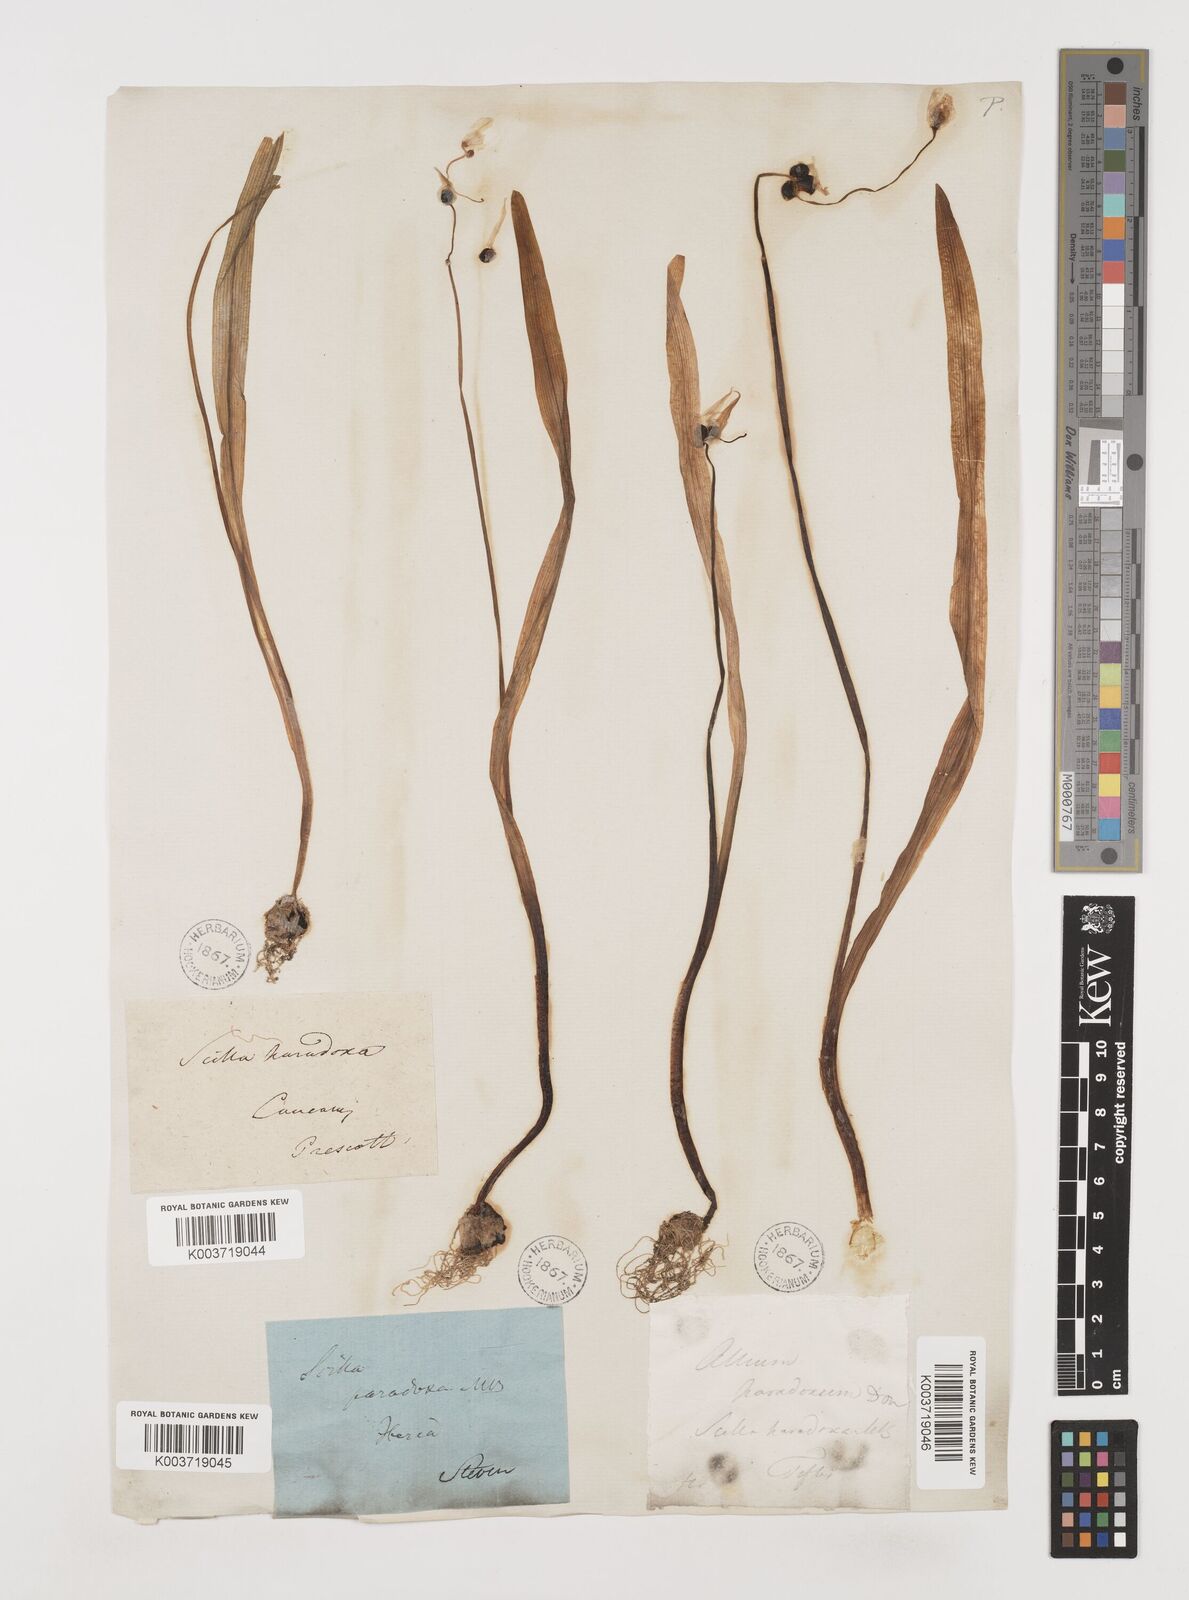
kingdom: Plantae
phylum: Tracheophyta
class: Liliopsida
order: Asparagales
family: Amaryllidaceae
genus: Allium
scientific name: Allium paradoxum
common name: Few-flowered garlic
